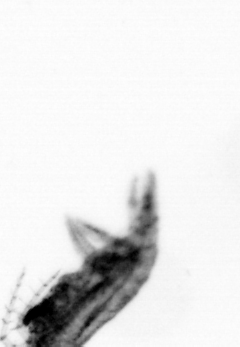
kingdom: Animalia
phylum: Arthropoda
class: Maxillopoda
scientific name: Maxillopoda
